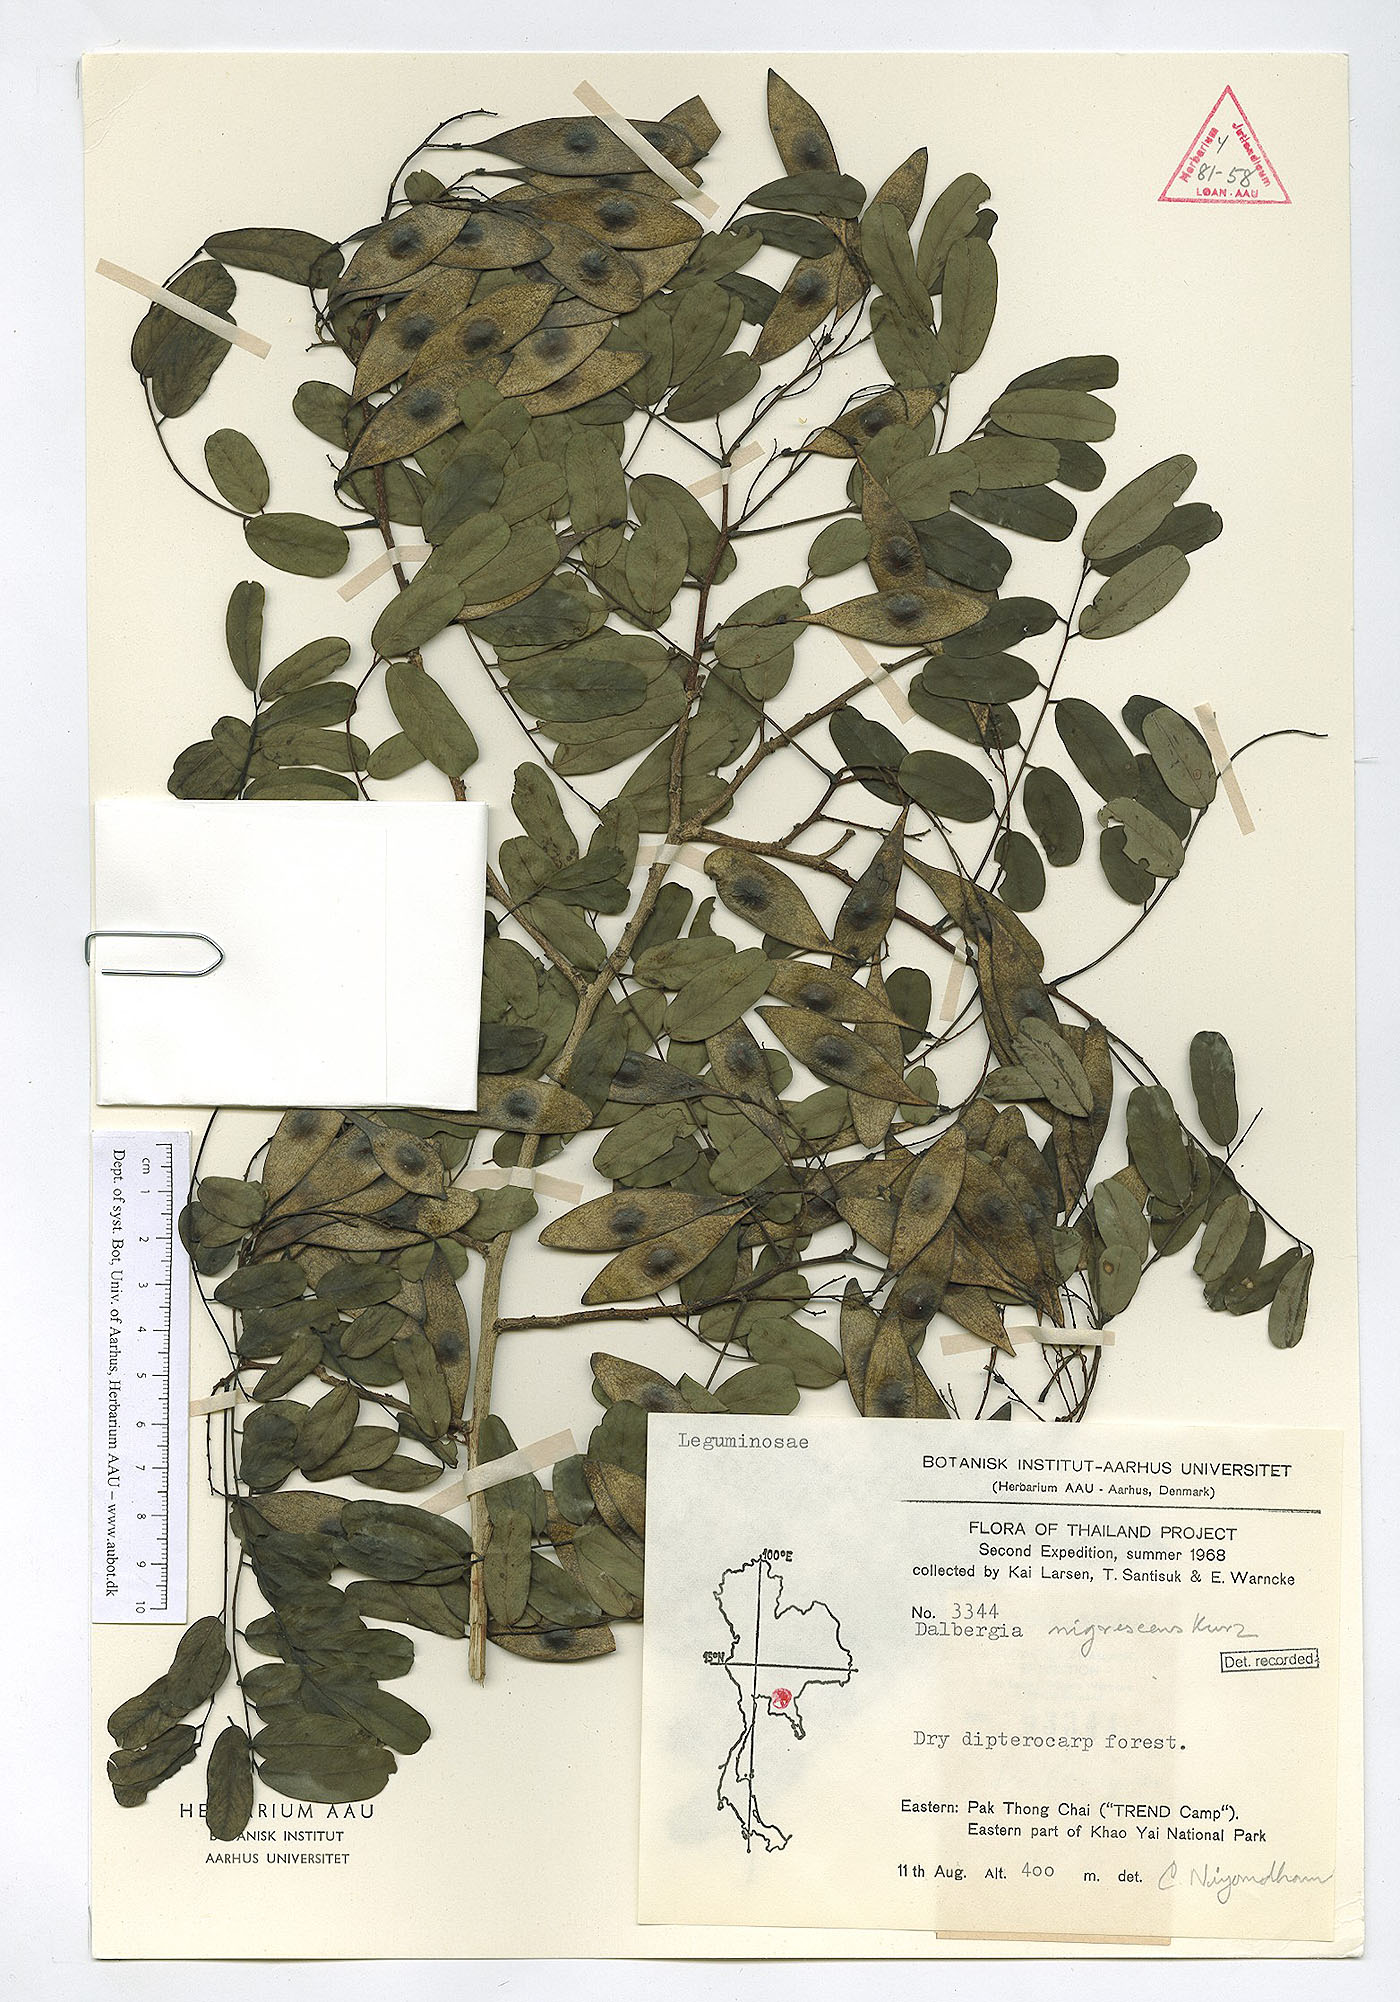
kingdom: Plantae
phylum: Tracheophyta
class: Magnoliopsida
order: Fabales
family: Fabaceae
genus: Dalbergia
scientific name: Dalbergia nigrescens
